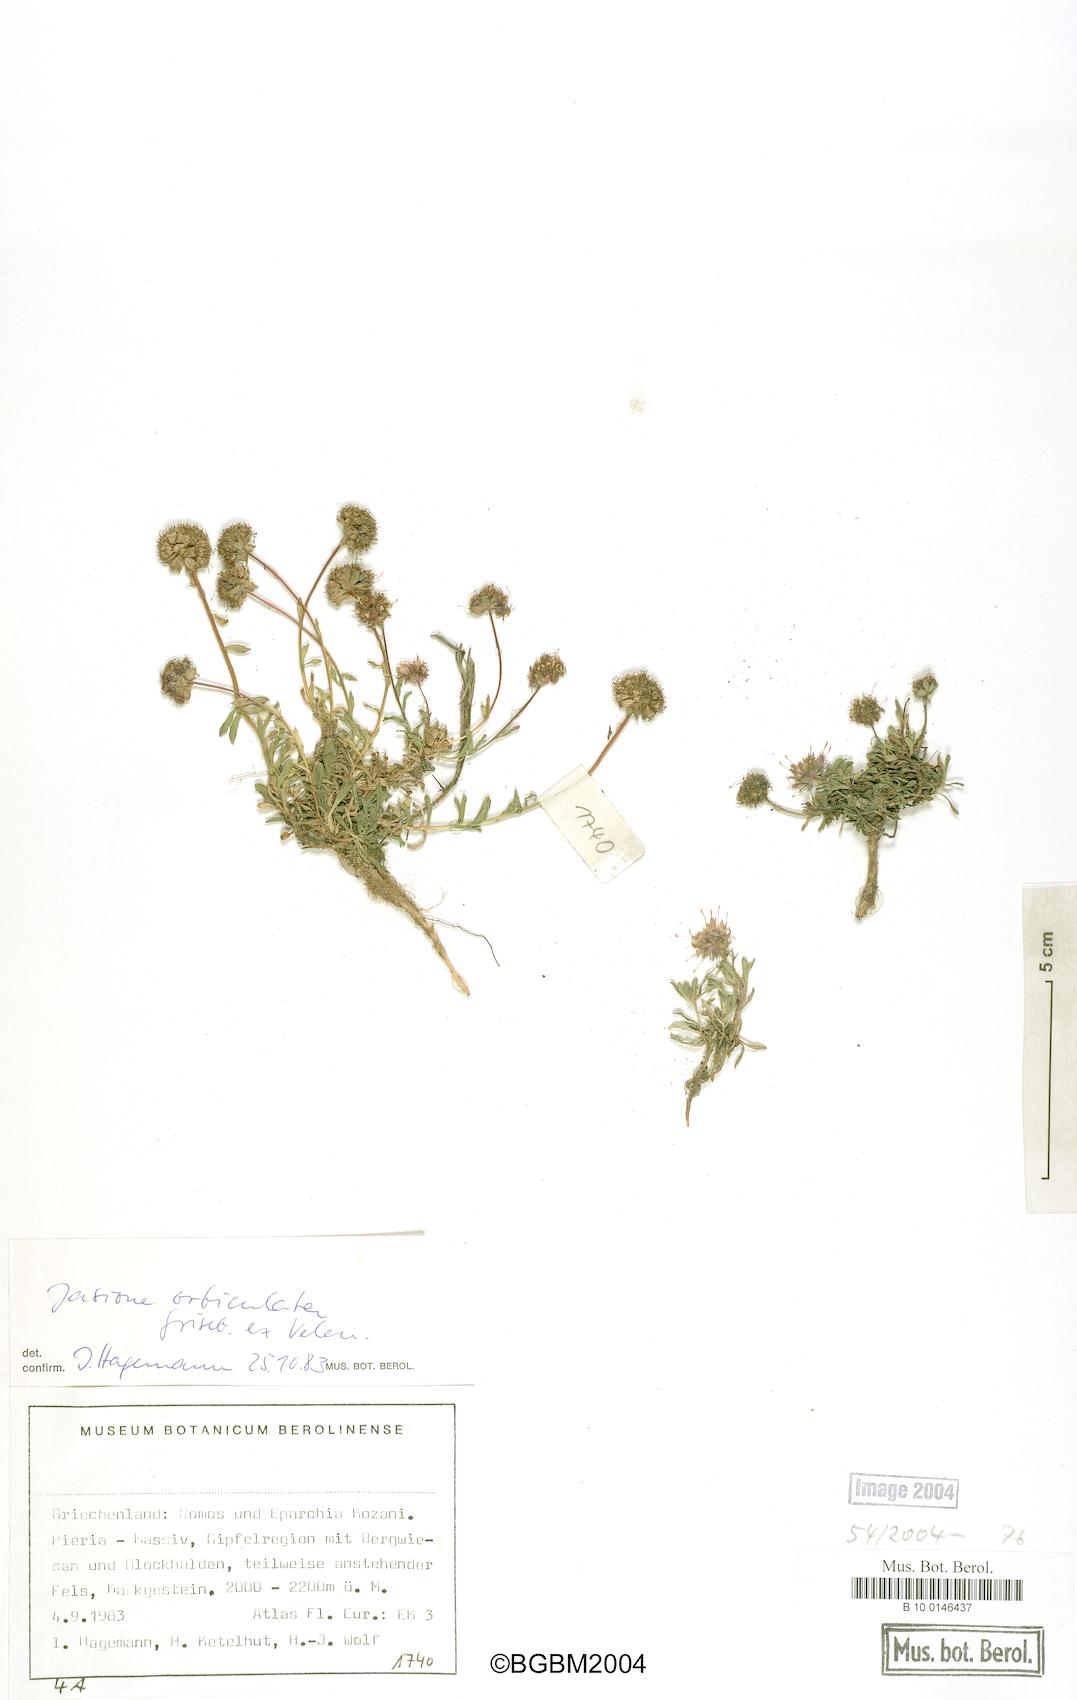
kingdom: Plantae
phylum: Tracheophyta
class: Magnoliopsida
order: Asterales
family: Campanulaceae
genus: Jasione
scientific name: Jasione orbiculata
